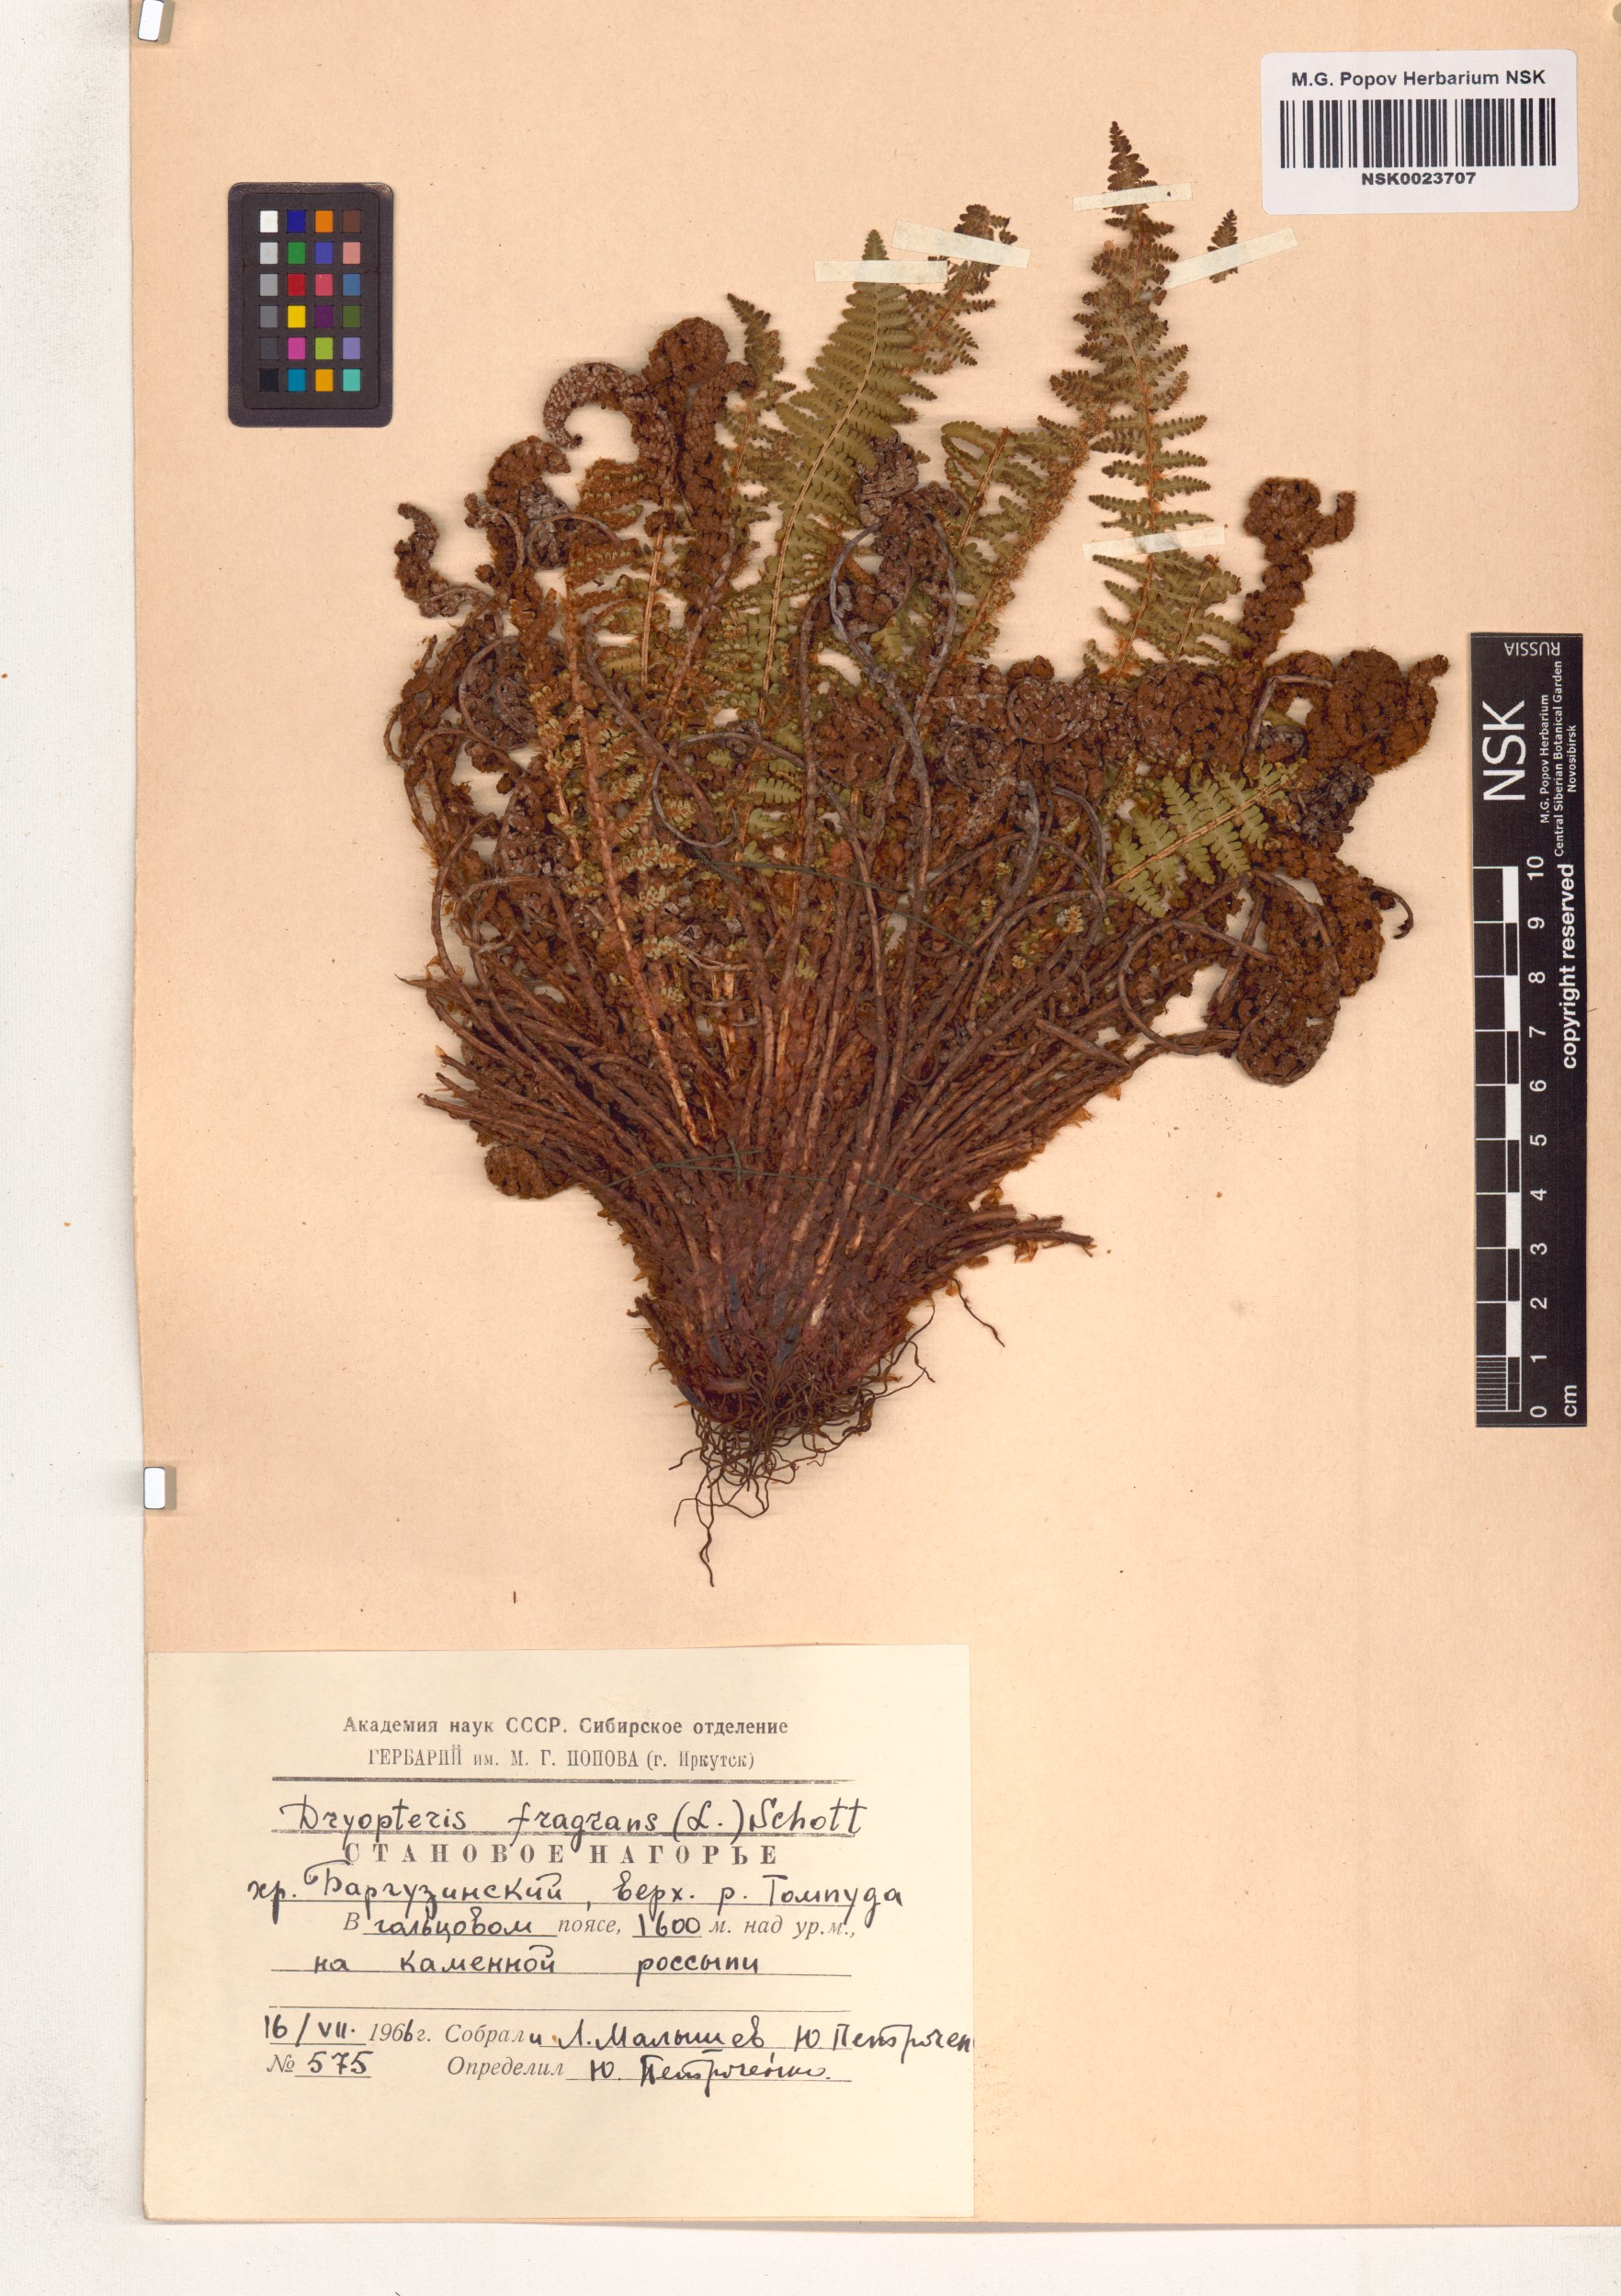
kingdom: Plantae
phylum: Tracheophyta
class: Polypodiopsida
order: Polypodiales
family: Dryopteridaceae
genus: Dryopteris
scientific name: Dryopteris fragrans
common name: Fragrant wood fern
